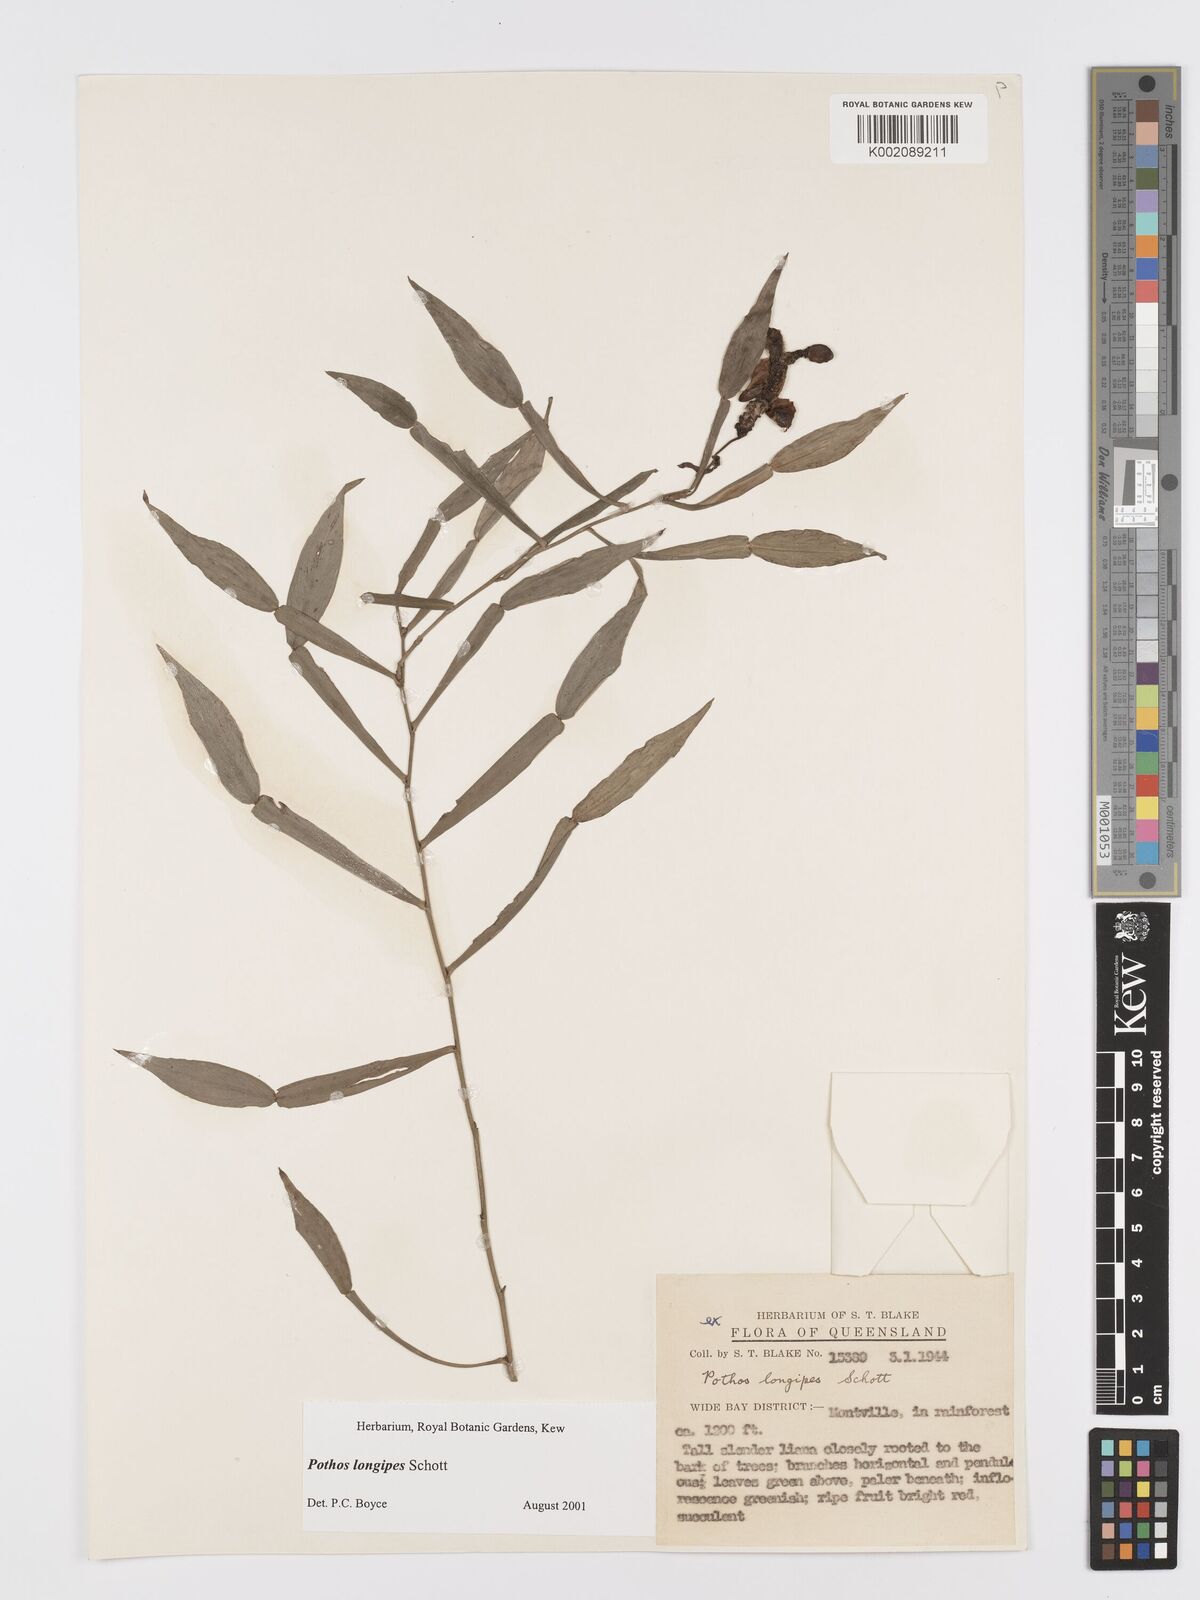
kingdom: Plantae
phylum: Tracheophyta
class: Liliopsida
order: Alismatales
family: Araceae
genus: Pothos
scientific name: Pothos longipes
